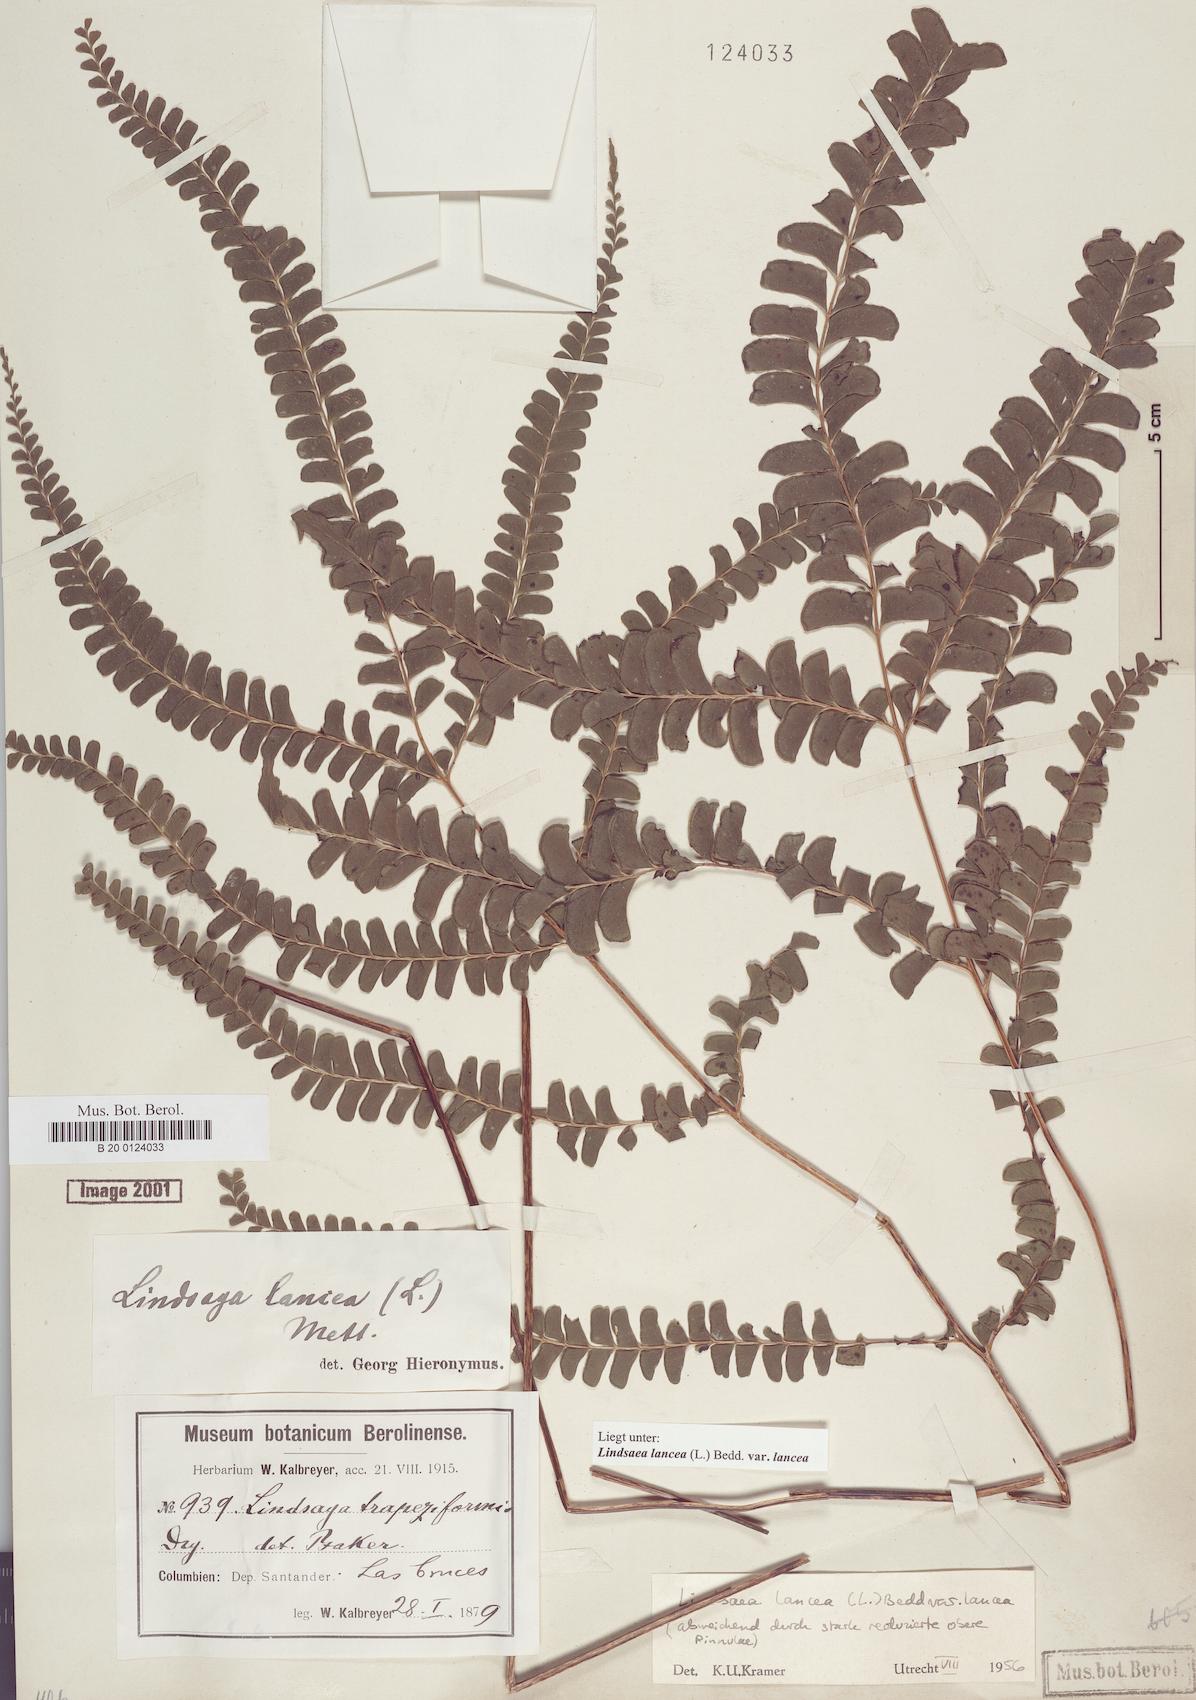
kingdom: Plantae
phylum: Tracheophyta
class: Polypodiopsida
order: Polypodiales
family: Lindsaeaceae
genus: Lindsaea
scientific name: Lindsaea lancea
